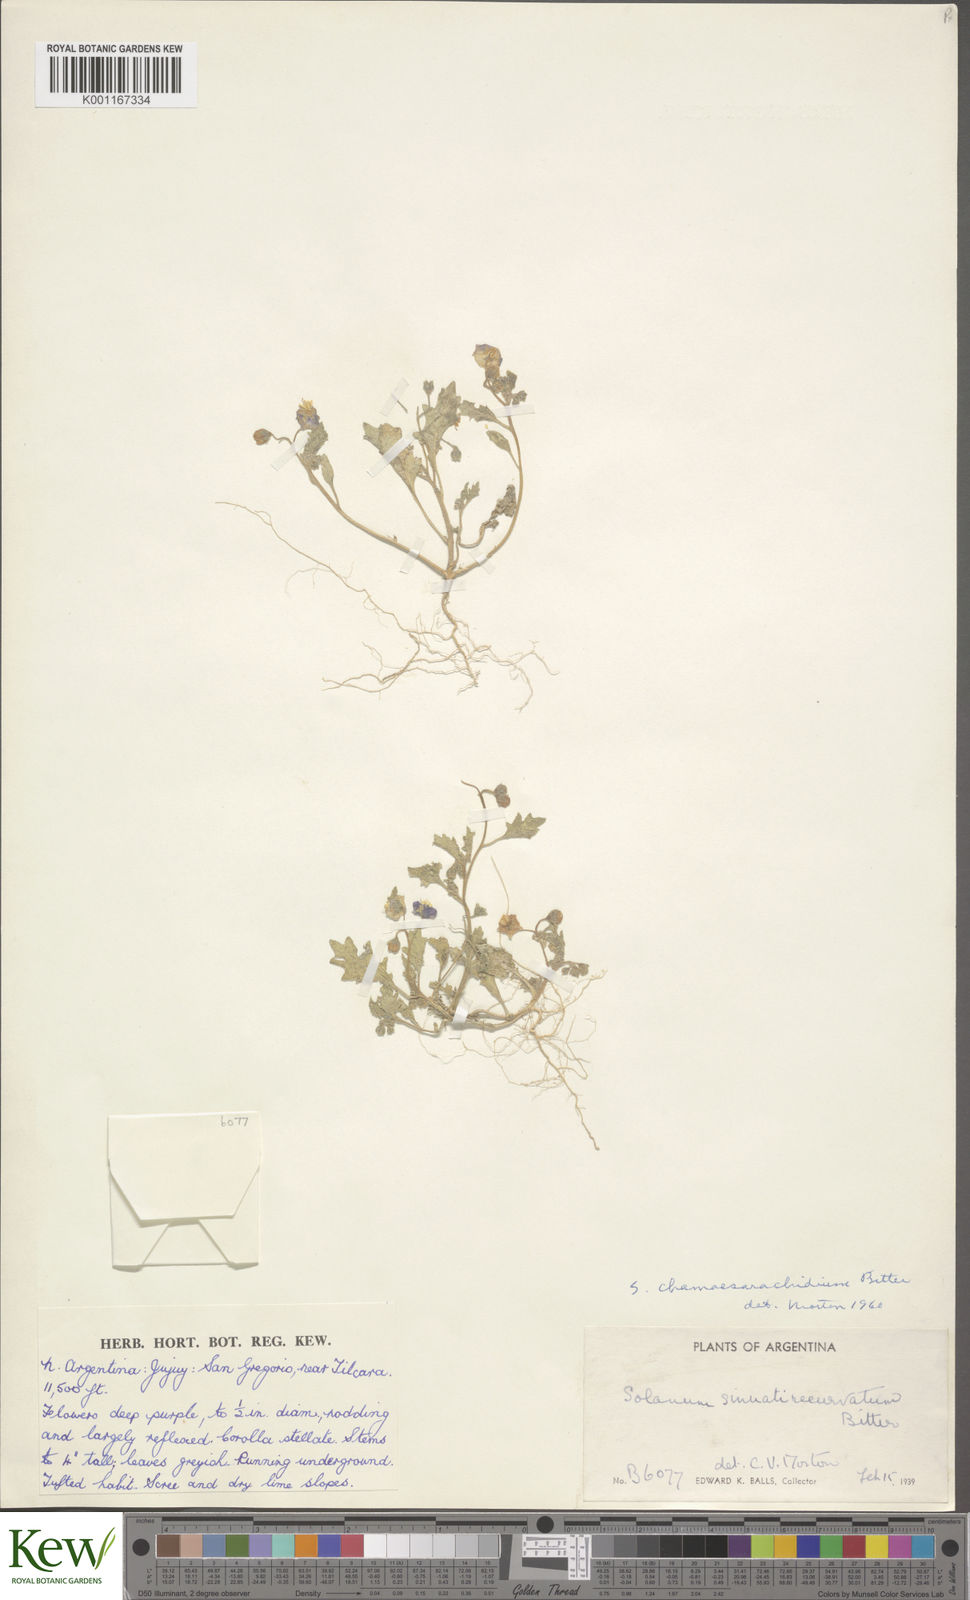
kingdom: Plantae
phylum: Tracheophyta
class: Magnoliopsida
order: Solanales
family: Solanaceae
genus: Solanum
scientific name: Solanum weddellii
